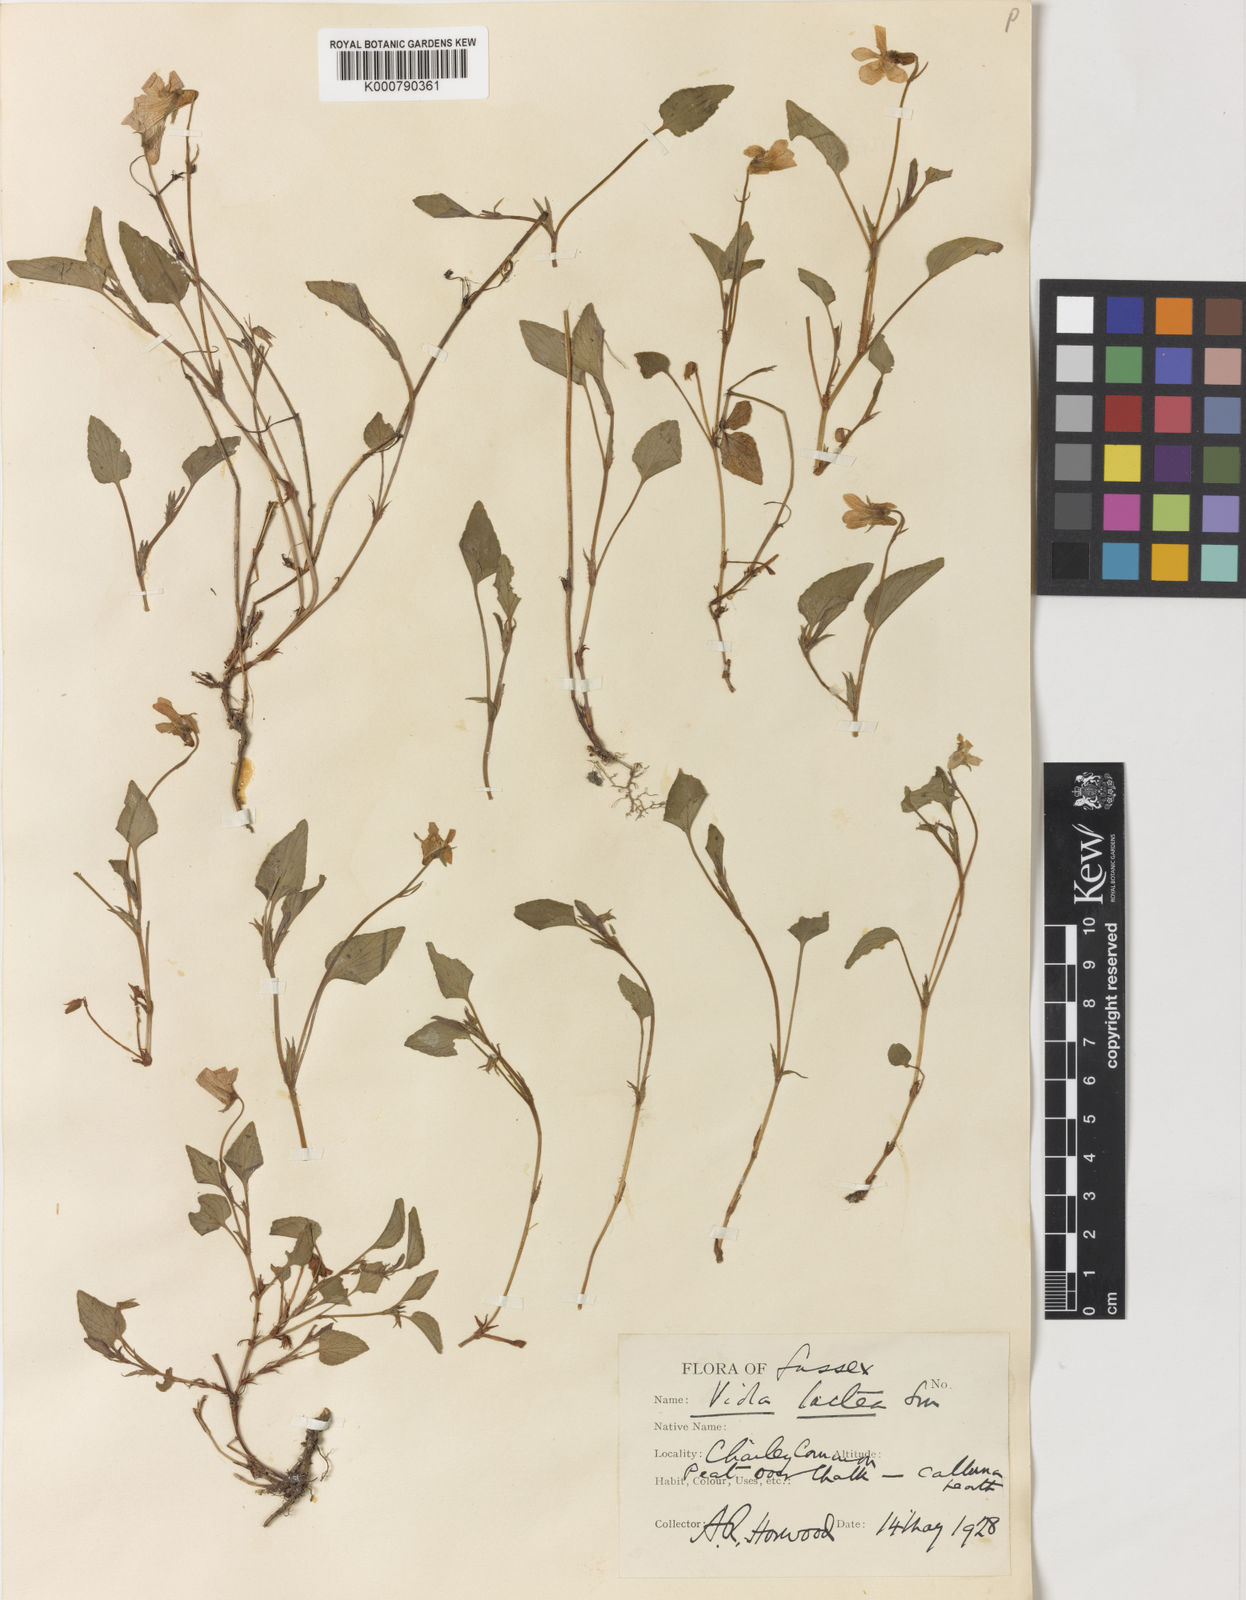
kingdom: Plantae
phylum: Tracheophyta
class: Magnoliopsida
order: Malpighiales
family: Violaceae
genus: Viola
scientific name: Viola lactea
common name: Pale dog-violet
